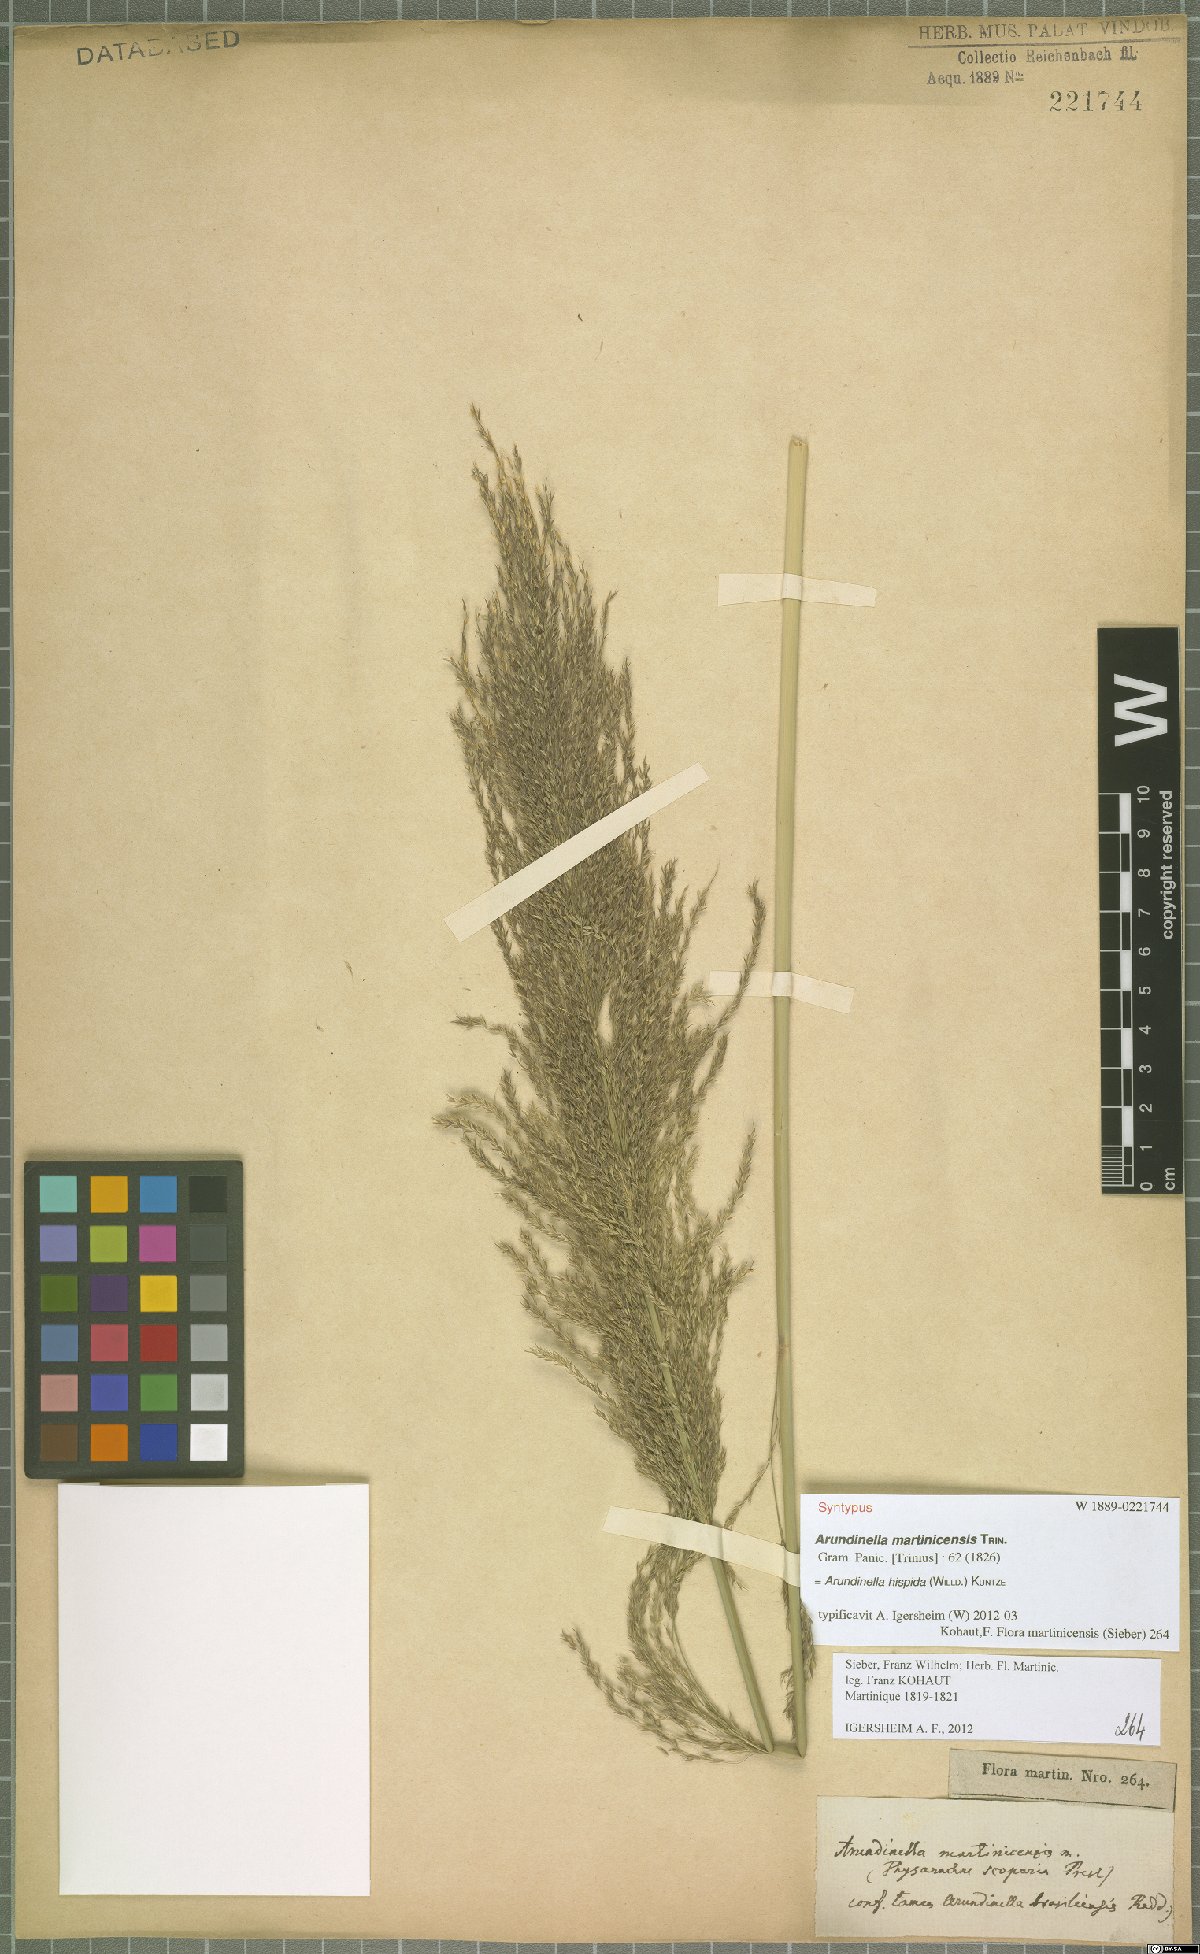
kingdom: Plantae
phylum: Tracheophyta
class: Liliopsida
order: Poales
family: Poaceae
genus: Arundinella
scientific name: Arundinella hispida
